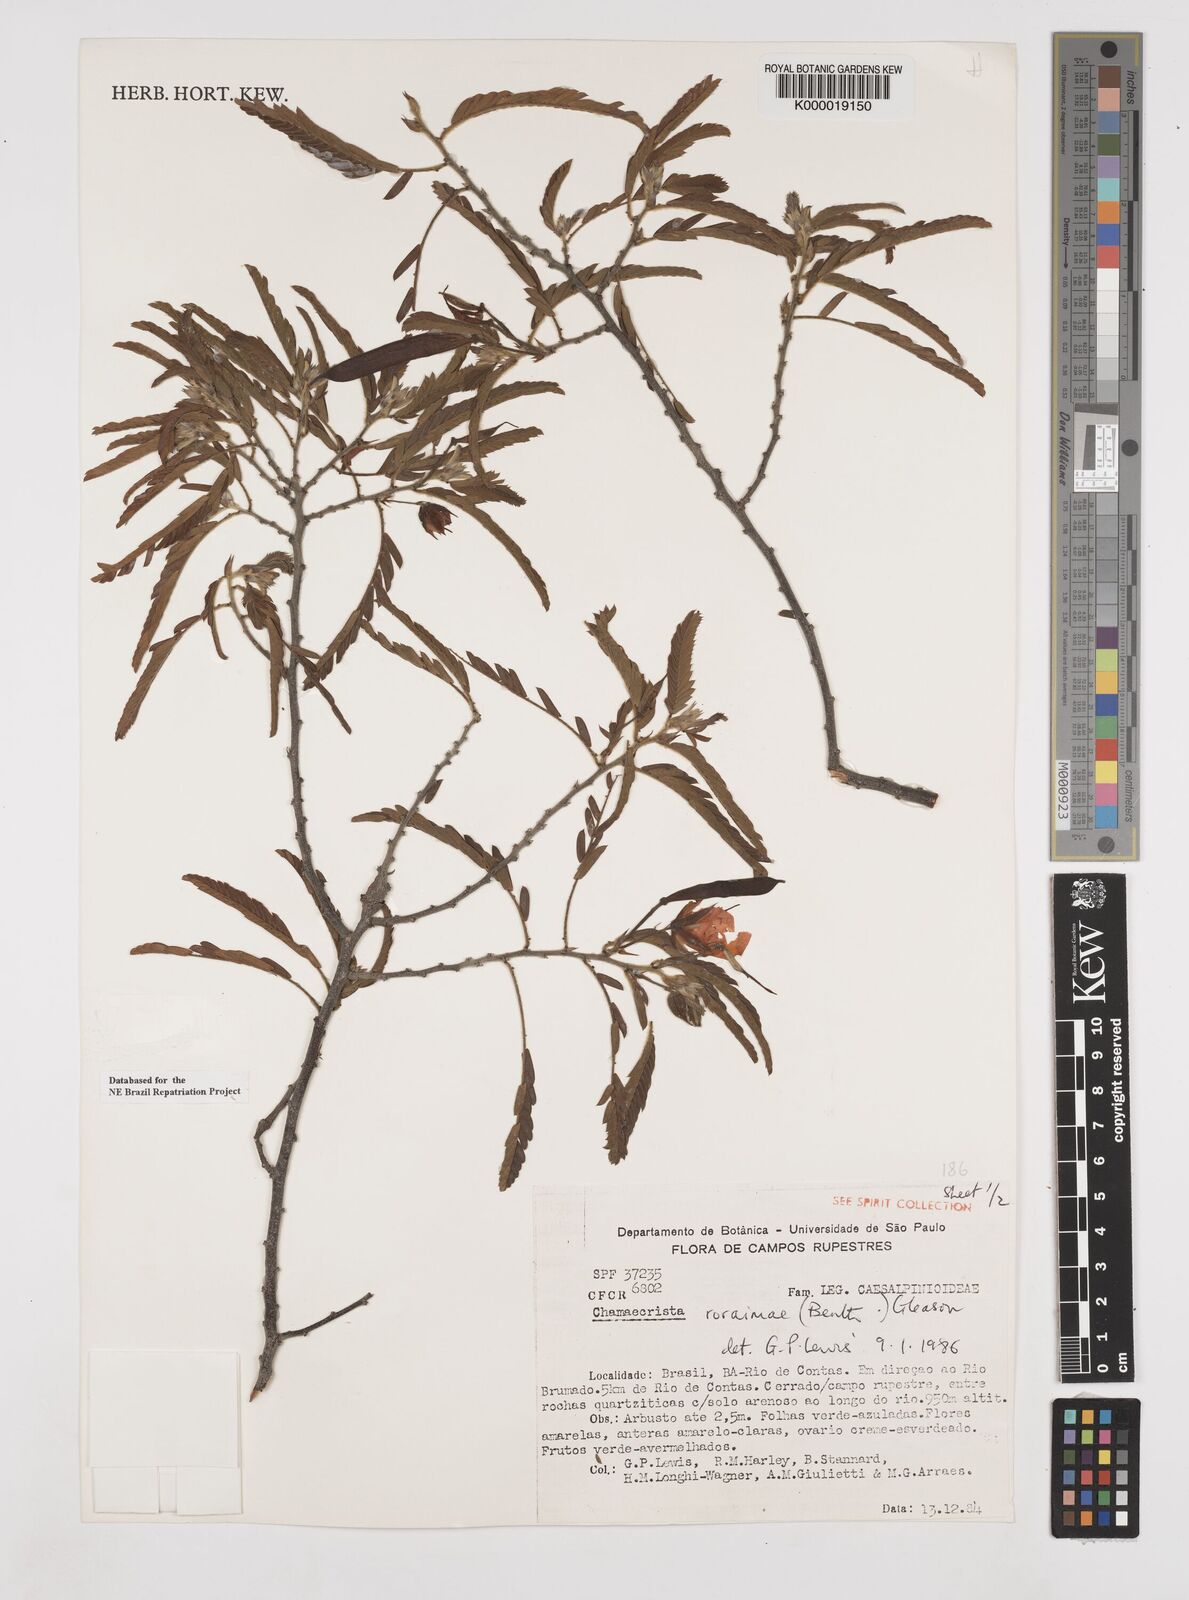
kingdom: Plantae
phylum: Tracheophyta
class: Magnoliopsida
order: Fabales
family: Fabaceae
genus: Chamaecrista
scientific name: Chamaecrista roraimae
